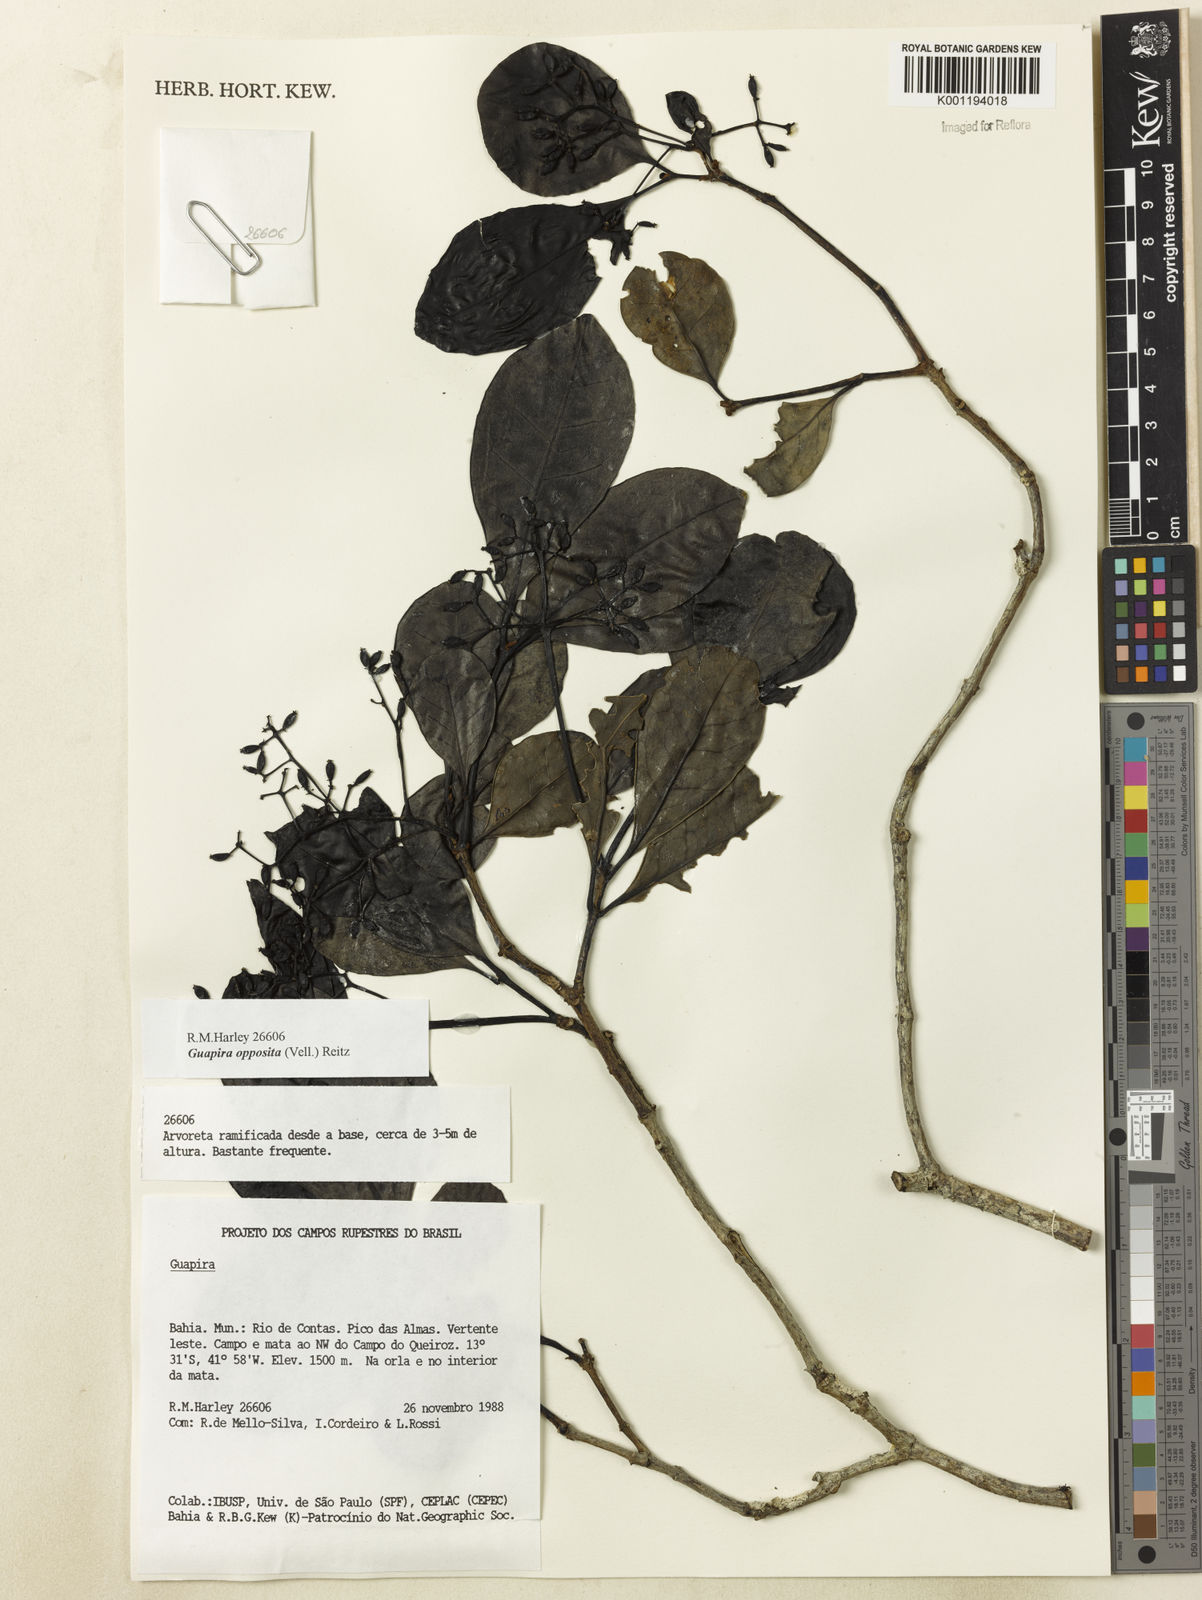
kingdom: Plantae
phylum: Tracheophyta
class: Magnoliopsida
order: Caryophyllales
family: Nyctaginaceae
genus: Guapira
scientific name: Guapira opposita
